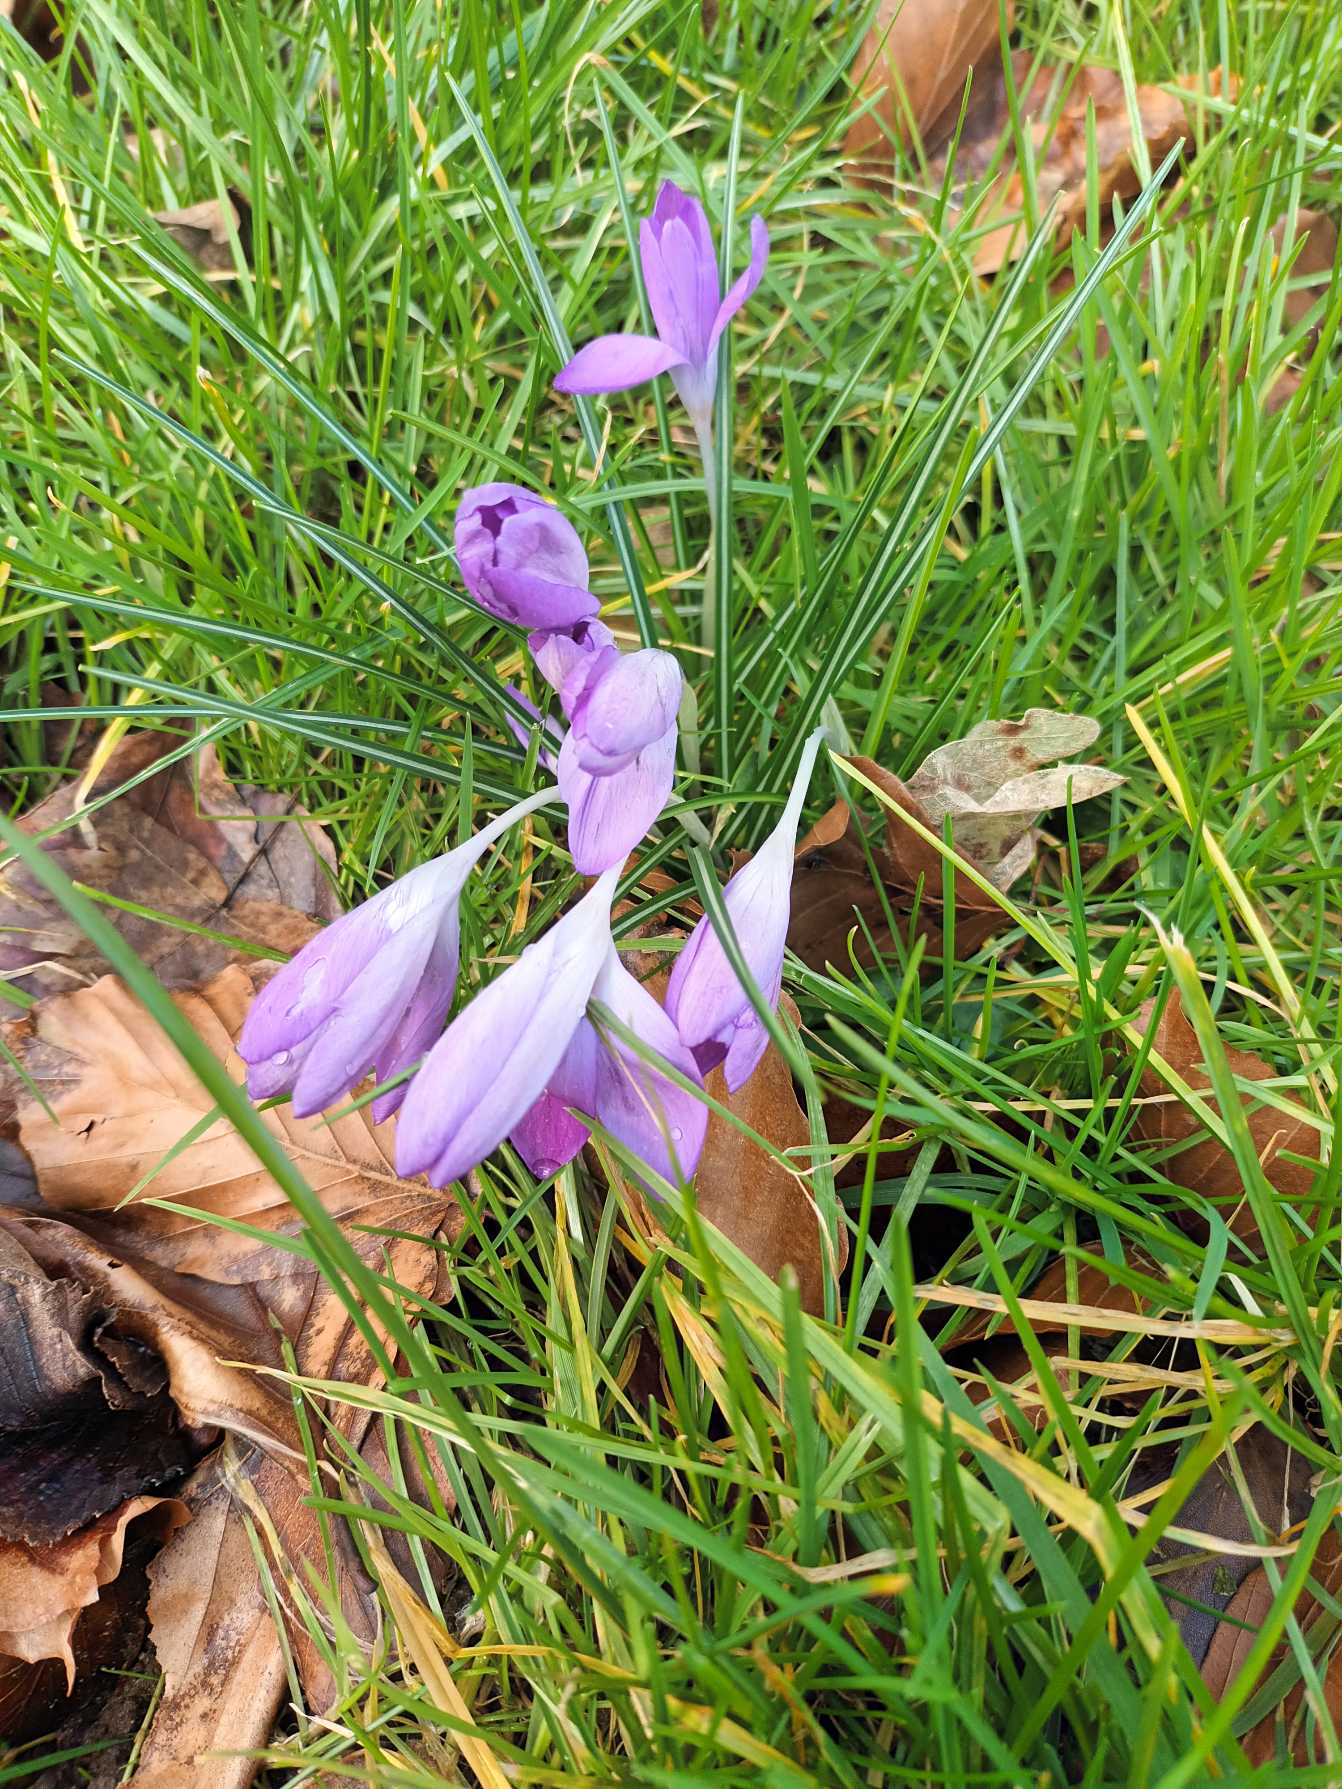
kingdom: Plantae
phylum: Tracheophyta
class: Liliopsida
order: Asparagales
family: Iridaceae
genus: Crocus
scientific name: Crocus tommasinianus
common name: Sne-krokus
